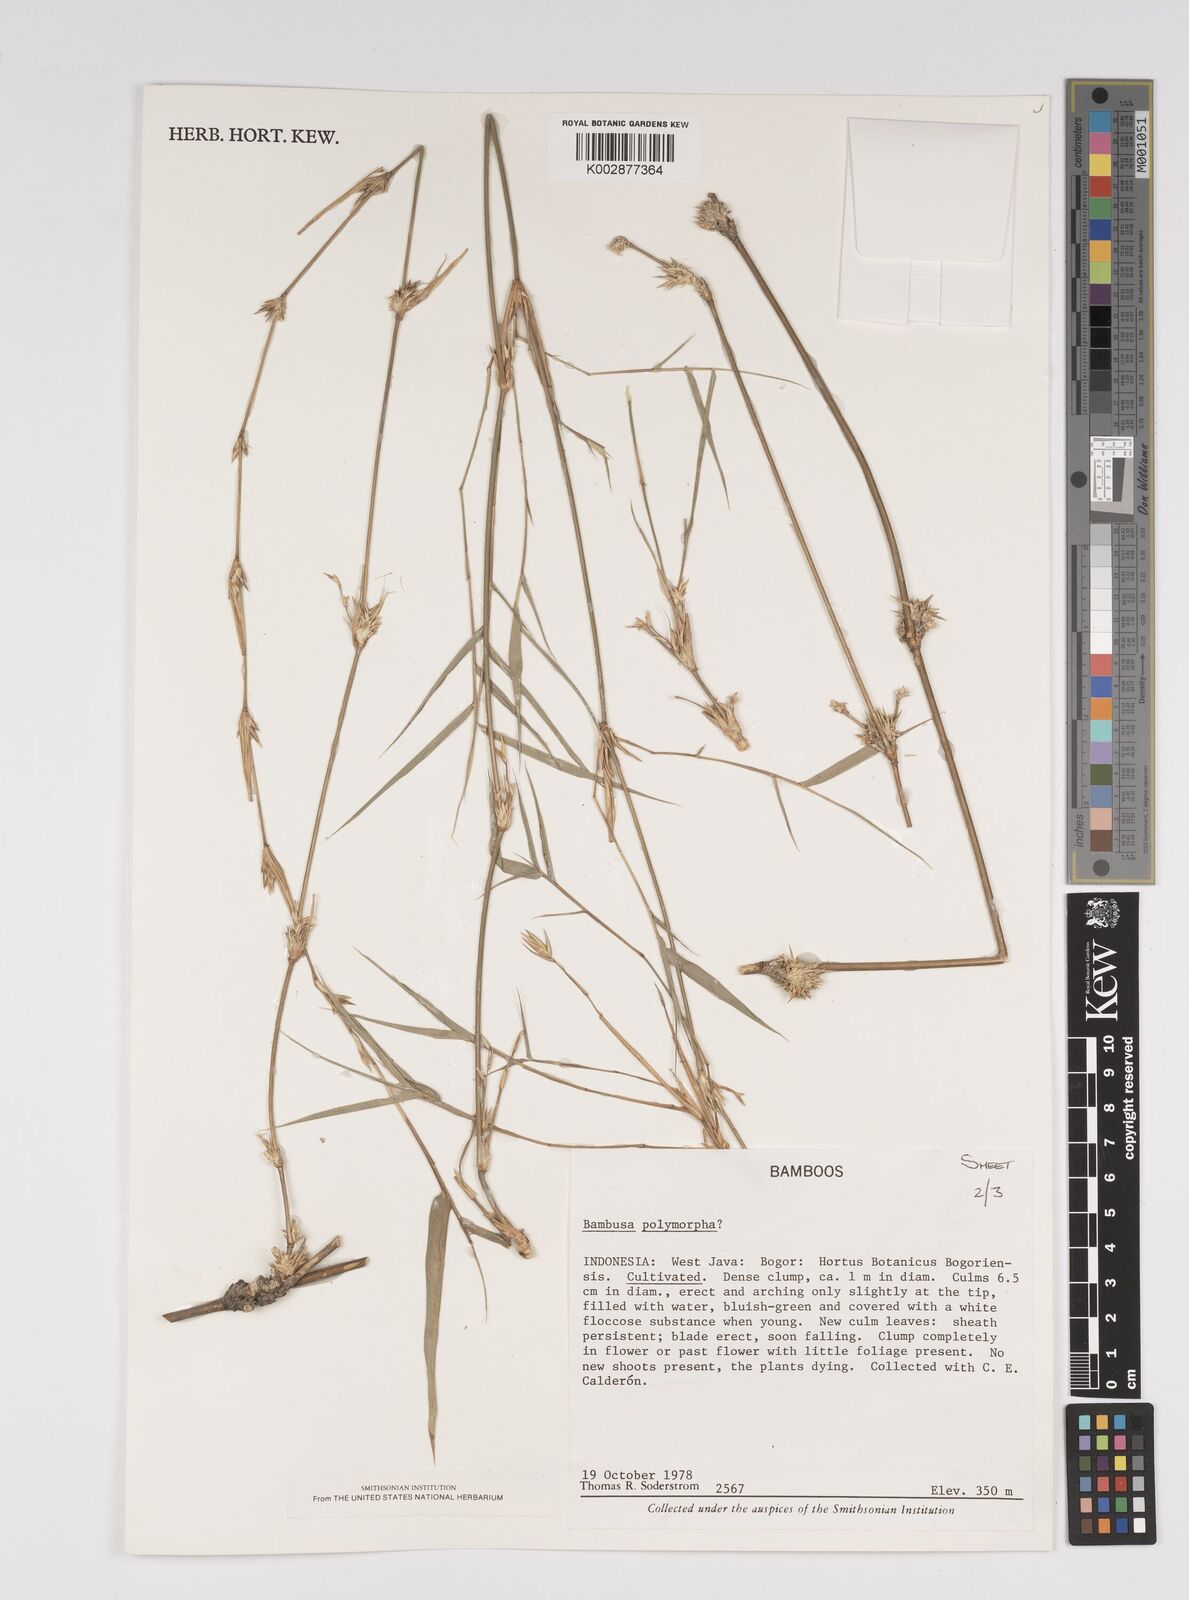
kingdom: Plantae
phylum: Tracheophyta
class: Liliopsida
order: Poales
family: Poaceae
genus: Bambusa
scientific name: Bambusa
